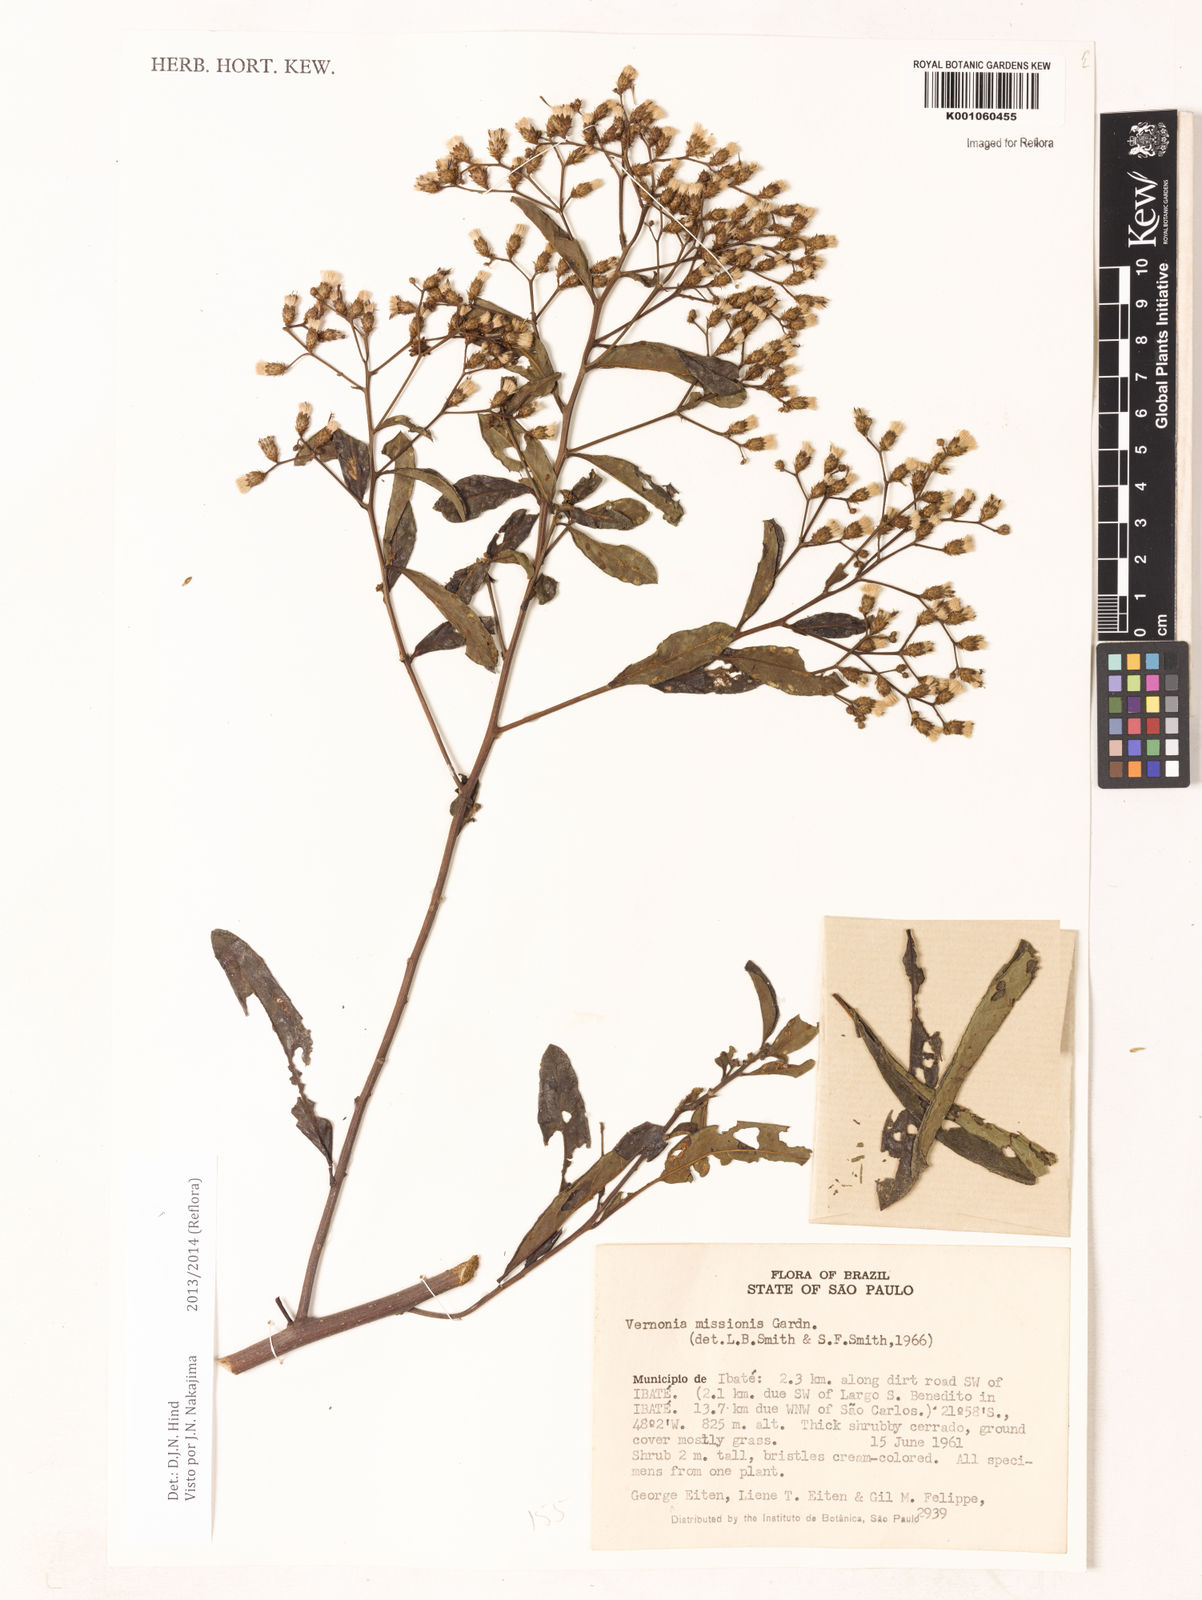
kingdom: Plantae
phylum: Tracheophyta
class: Magnoliopsida
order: Asterales
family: Asteraceae
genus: Vernonia
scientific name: Vernonia
